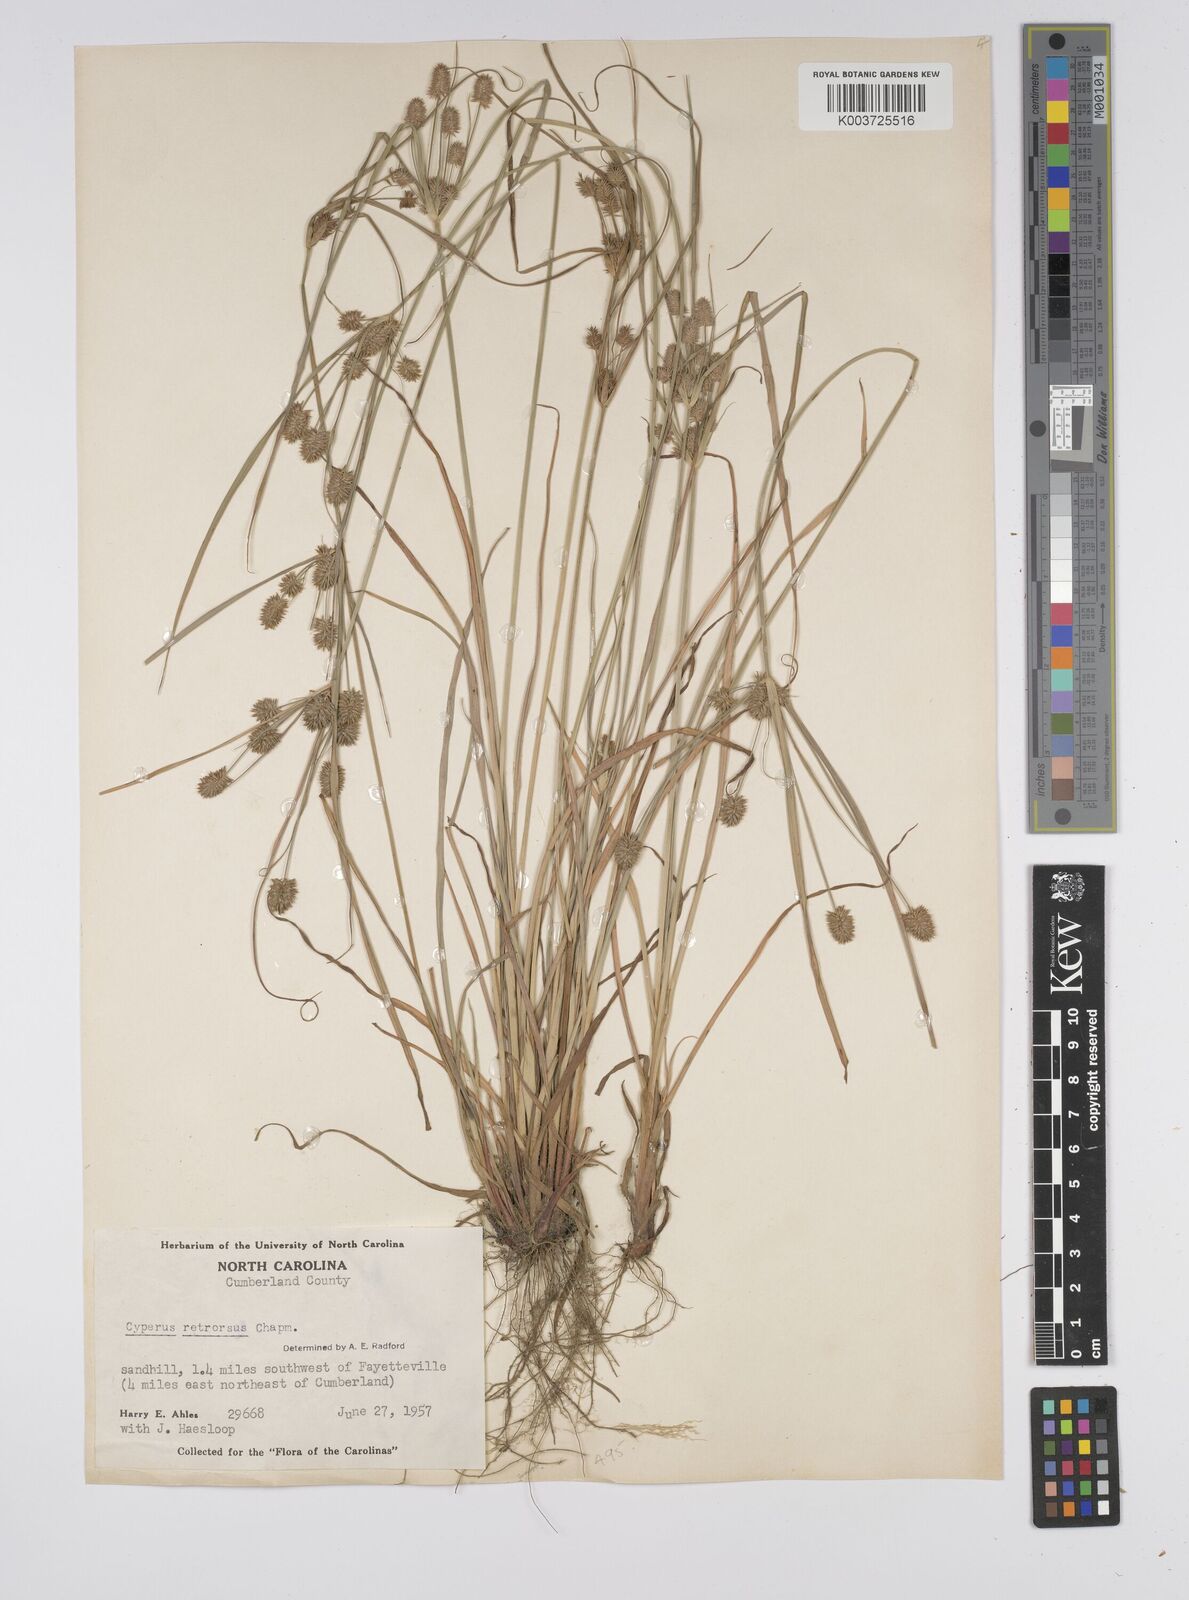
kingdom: Plantae
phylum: Tracheophyta
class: Liliopsida
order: Poales
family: Cyperaceae
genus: Cyperus
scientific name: Cyperus retrorsus
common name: Pinebarren flat sedge
